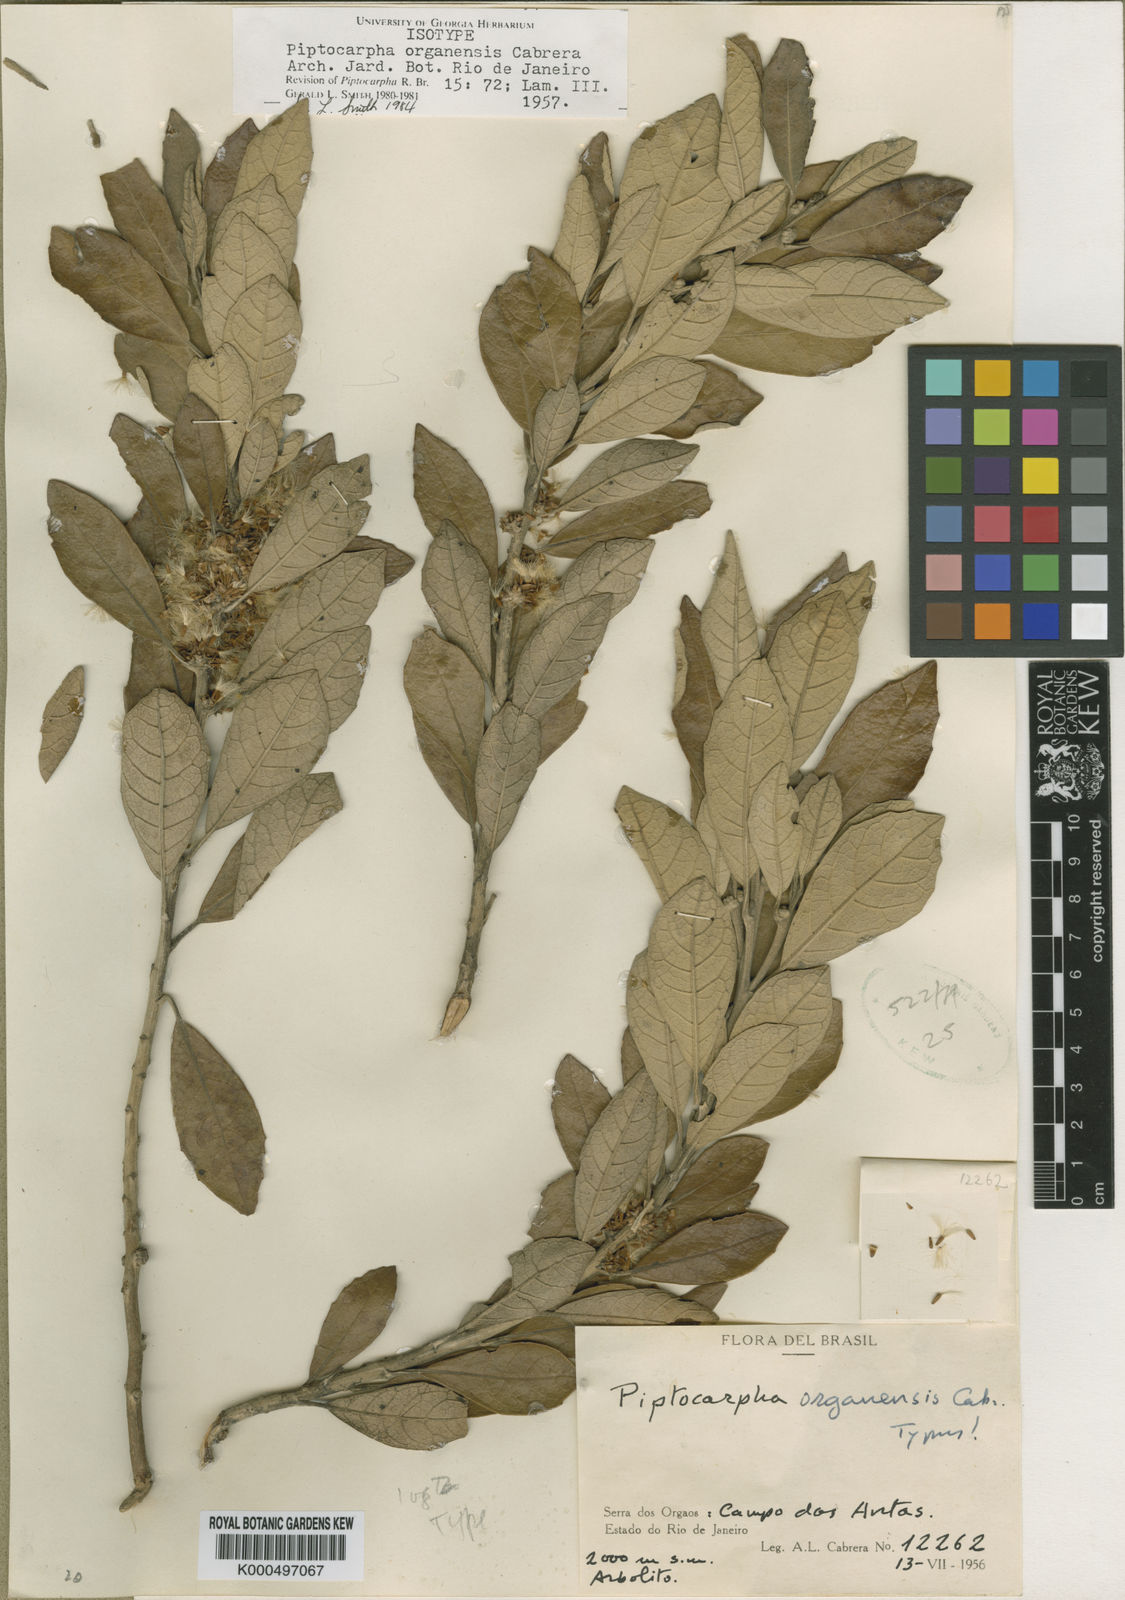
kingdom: Plantae
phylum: Tracheophyta
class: Magnoliopsida
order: Asterales
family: Asteraceae
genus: Piptocarpha
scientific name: Piptocarpha organensis
